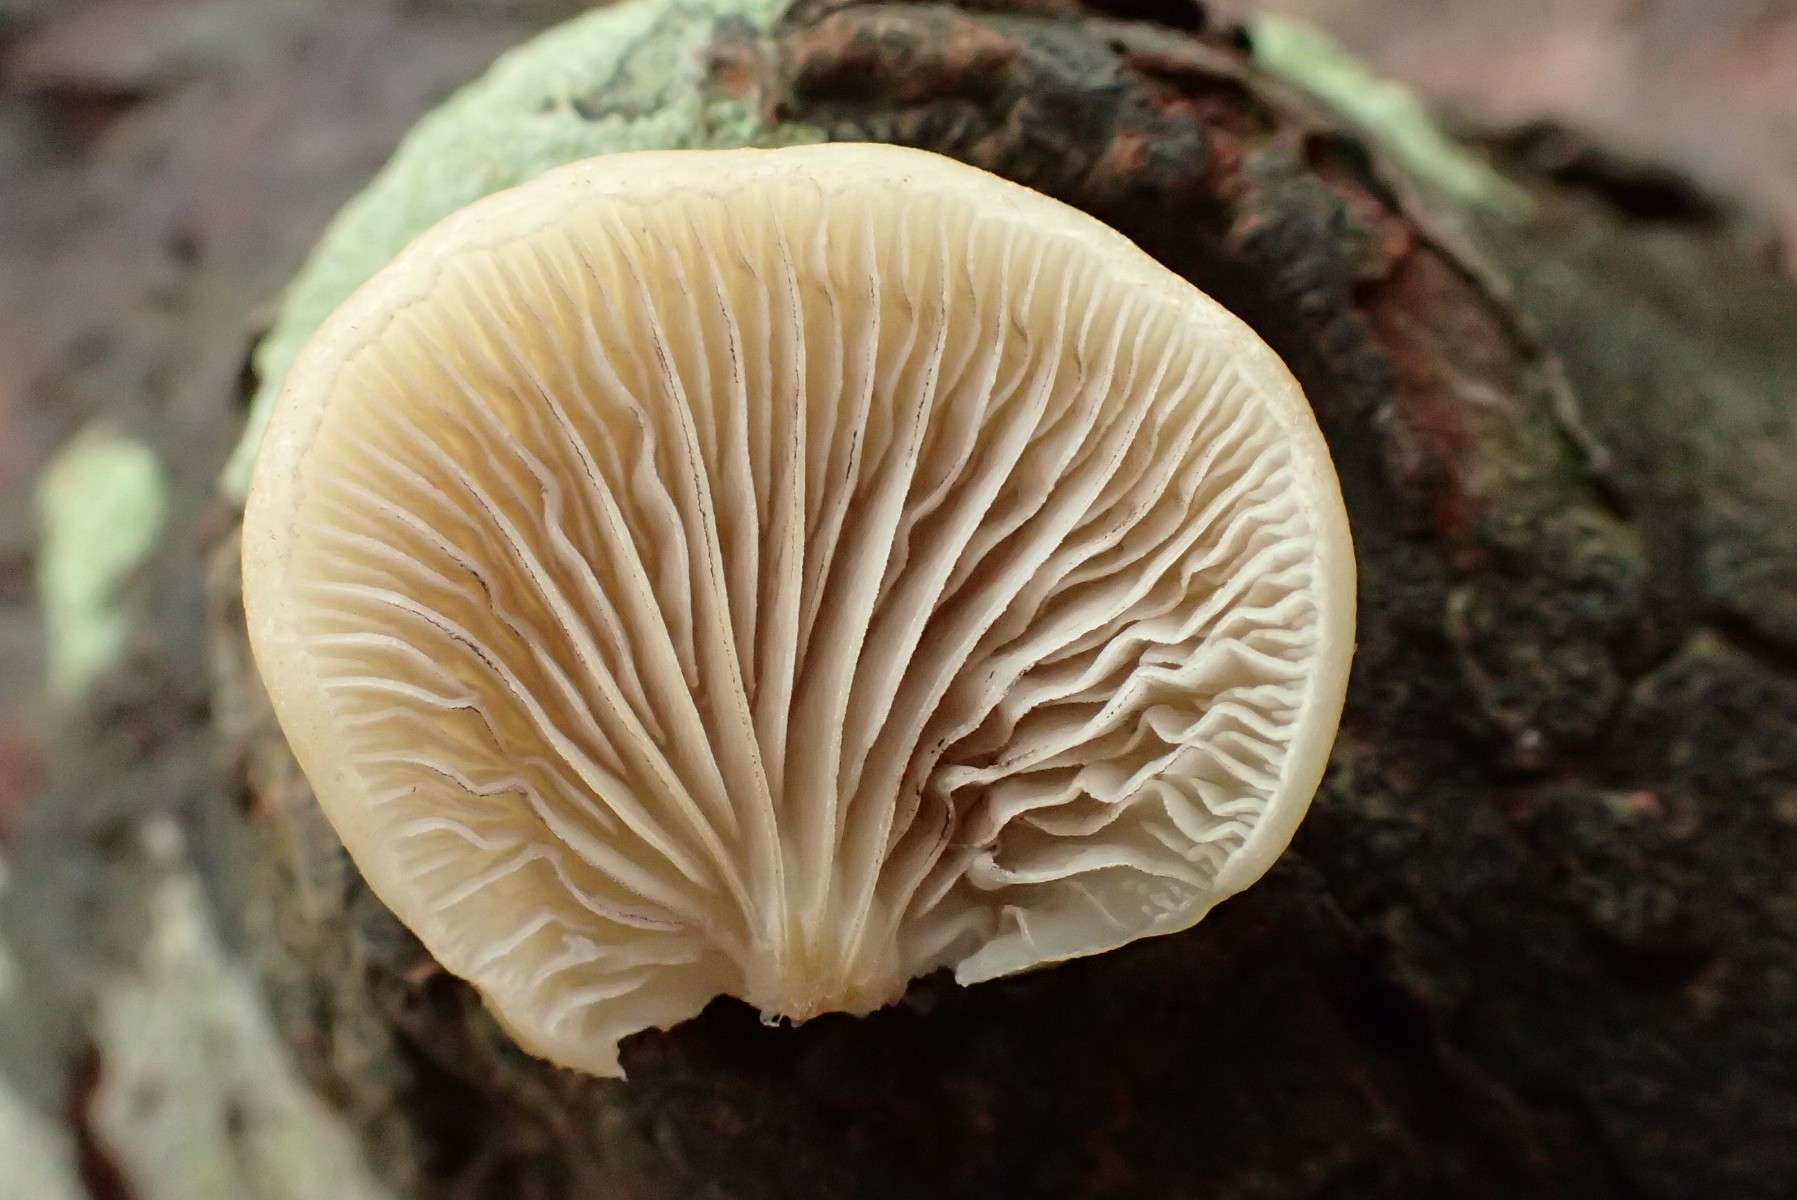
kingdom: Fungi
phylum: Basidiomycota
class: Agaricomycetes
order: Agaricales
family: Crepidotaceae
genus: Crepidotus
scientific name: Crepidotus mollis
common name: blød muslingesvamp
